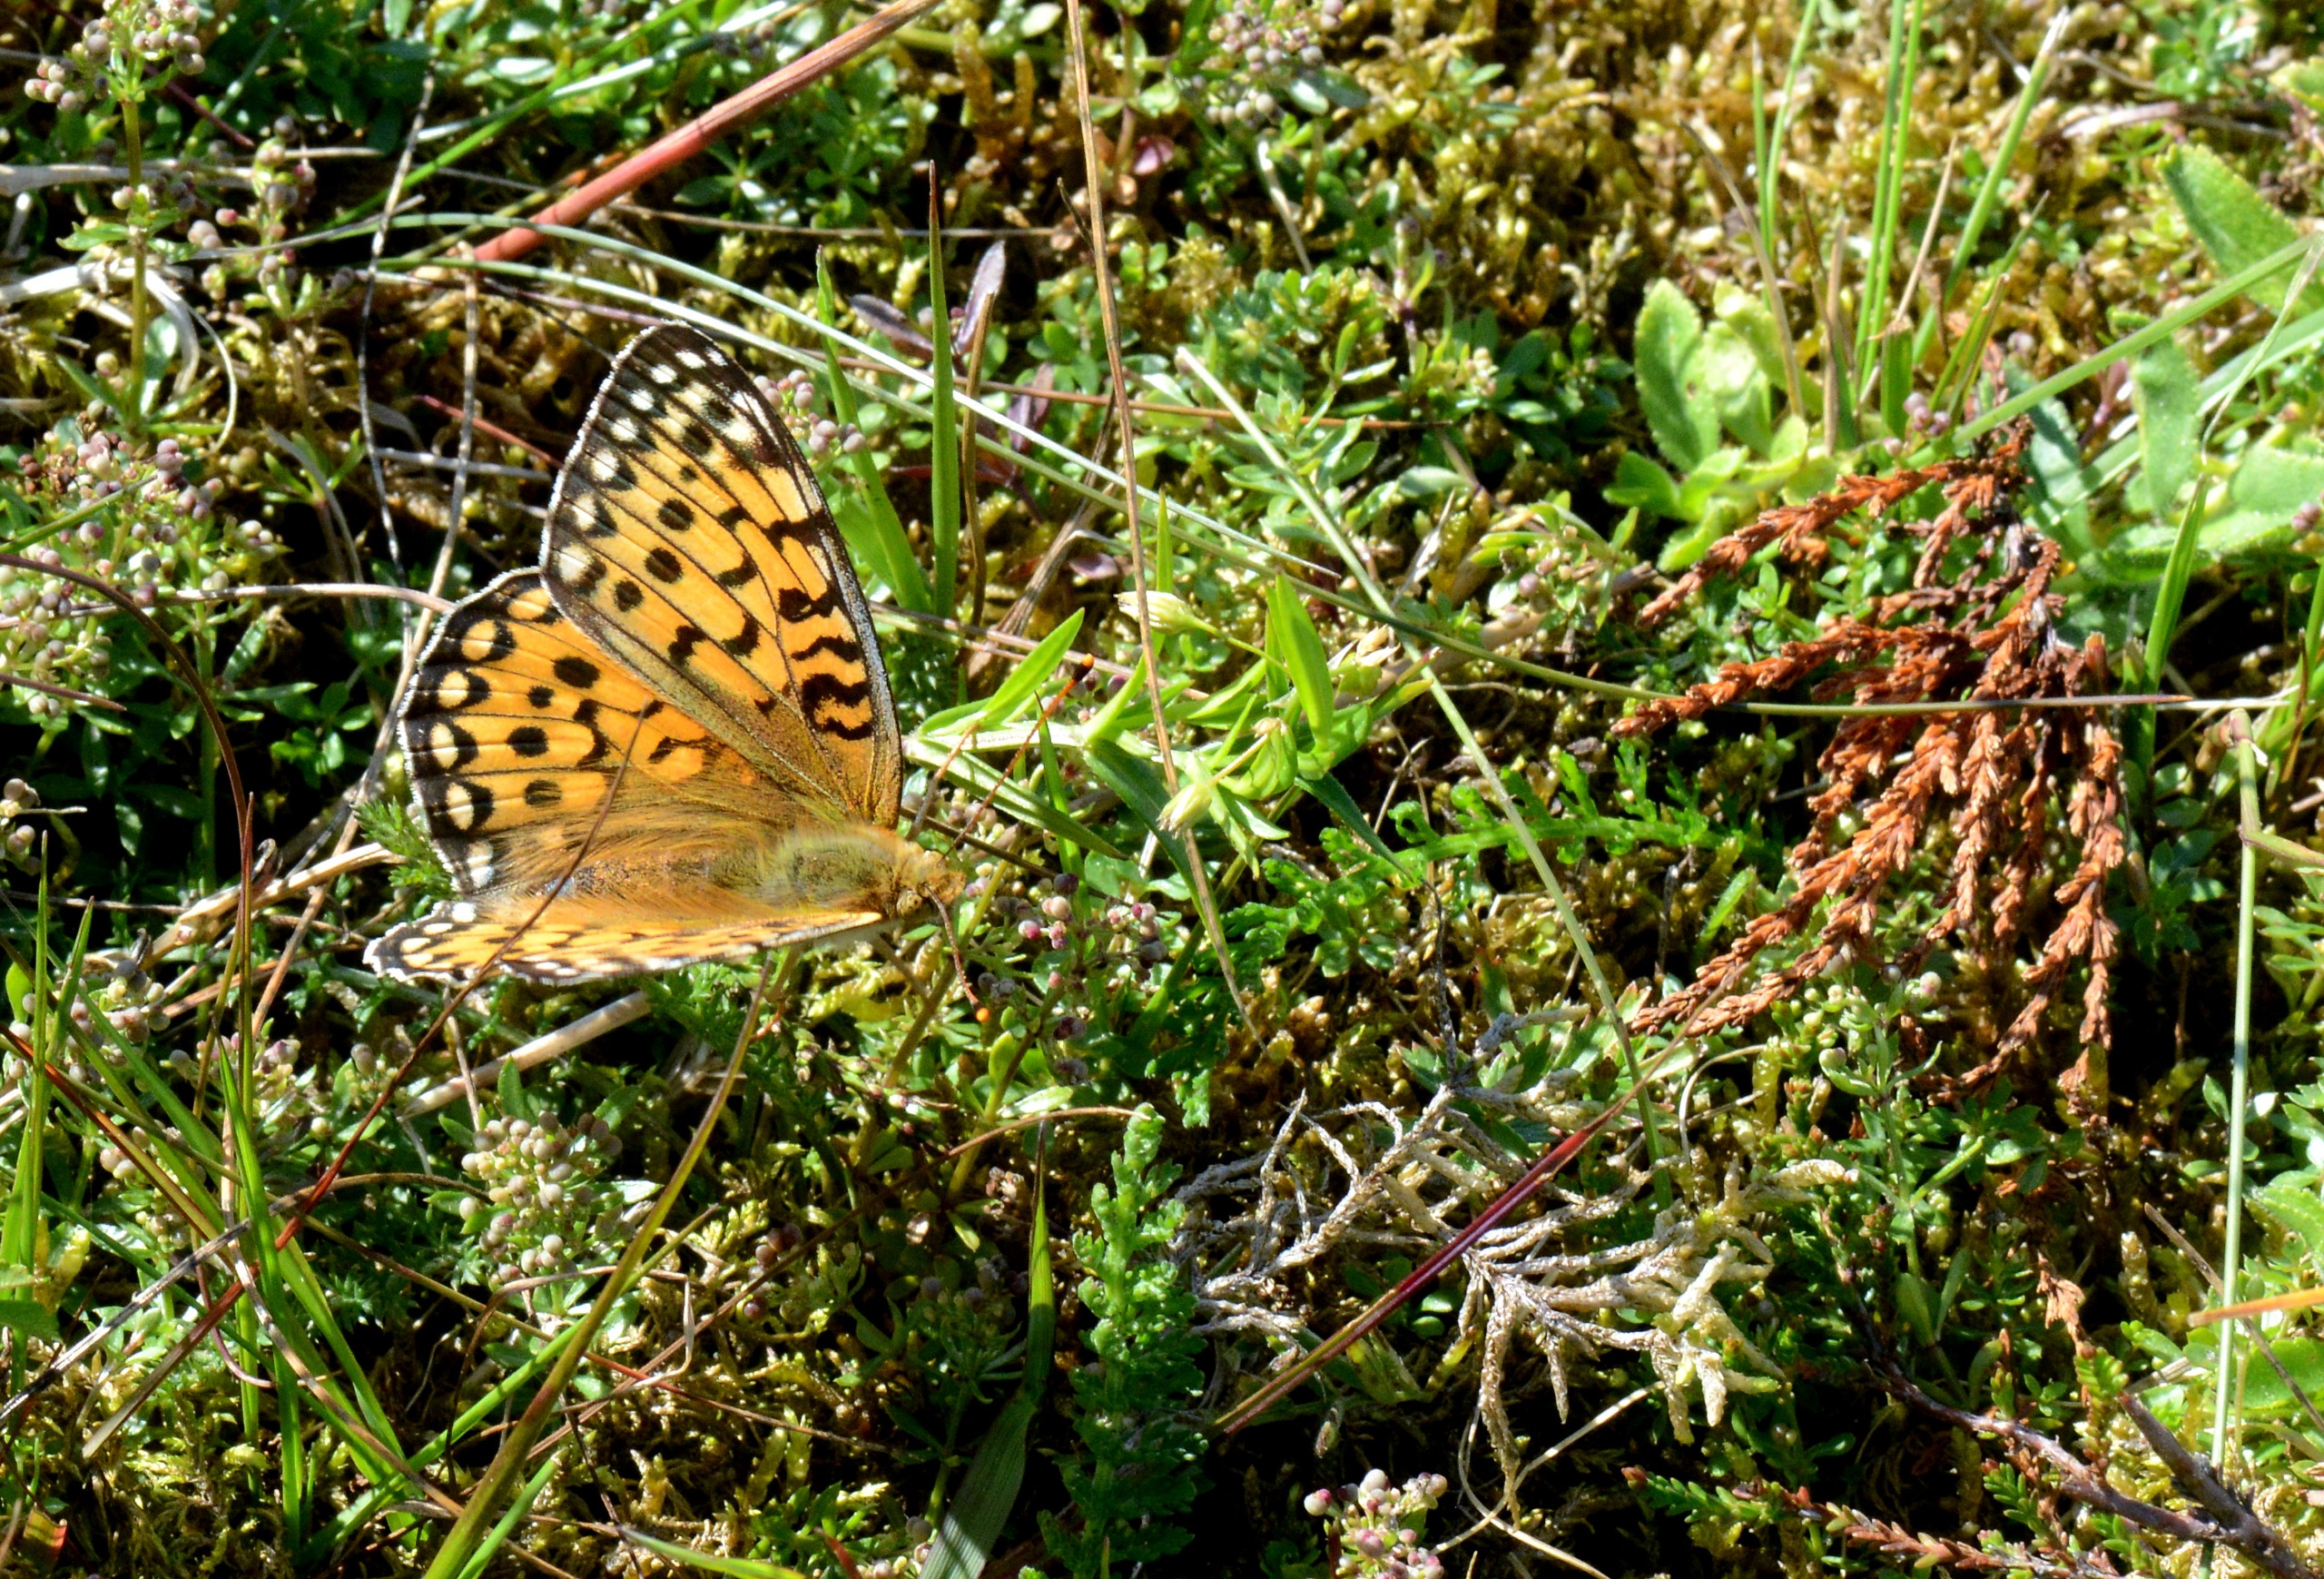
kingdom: Animalia
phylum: Arthropoda
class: Insecta
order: Lepidoptera
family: Nymphalidae
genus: Speyeria
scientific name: Speyeria aglaja
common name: Markperlemorsommerfugl
